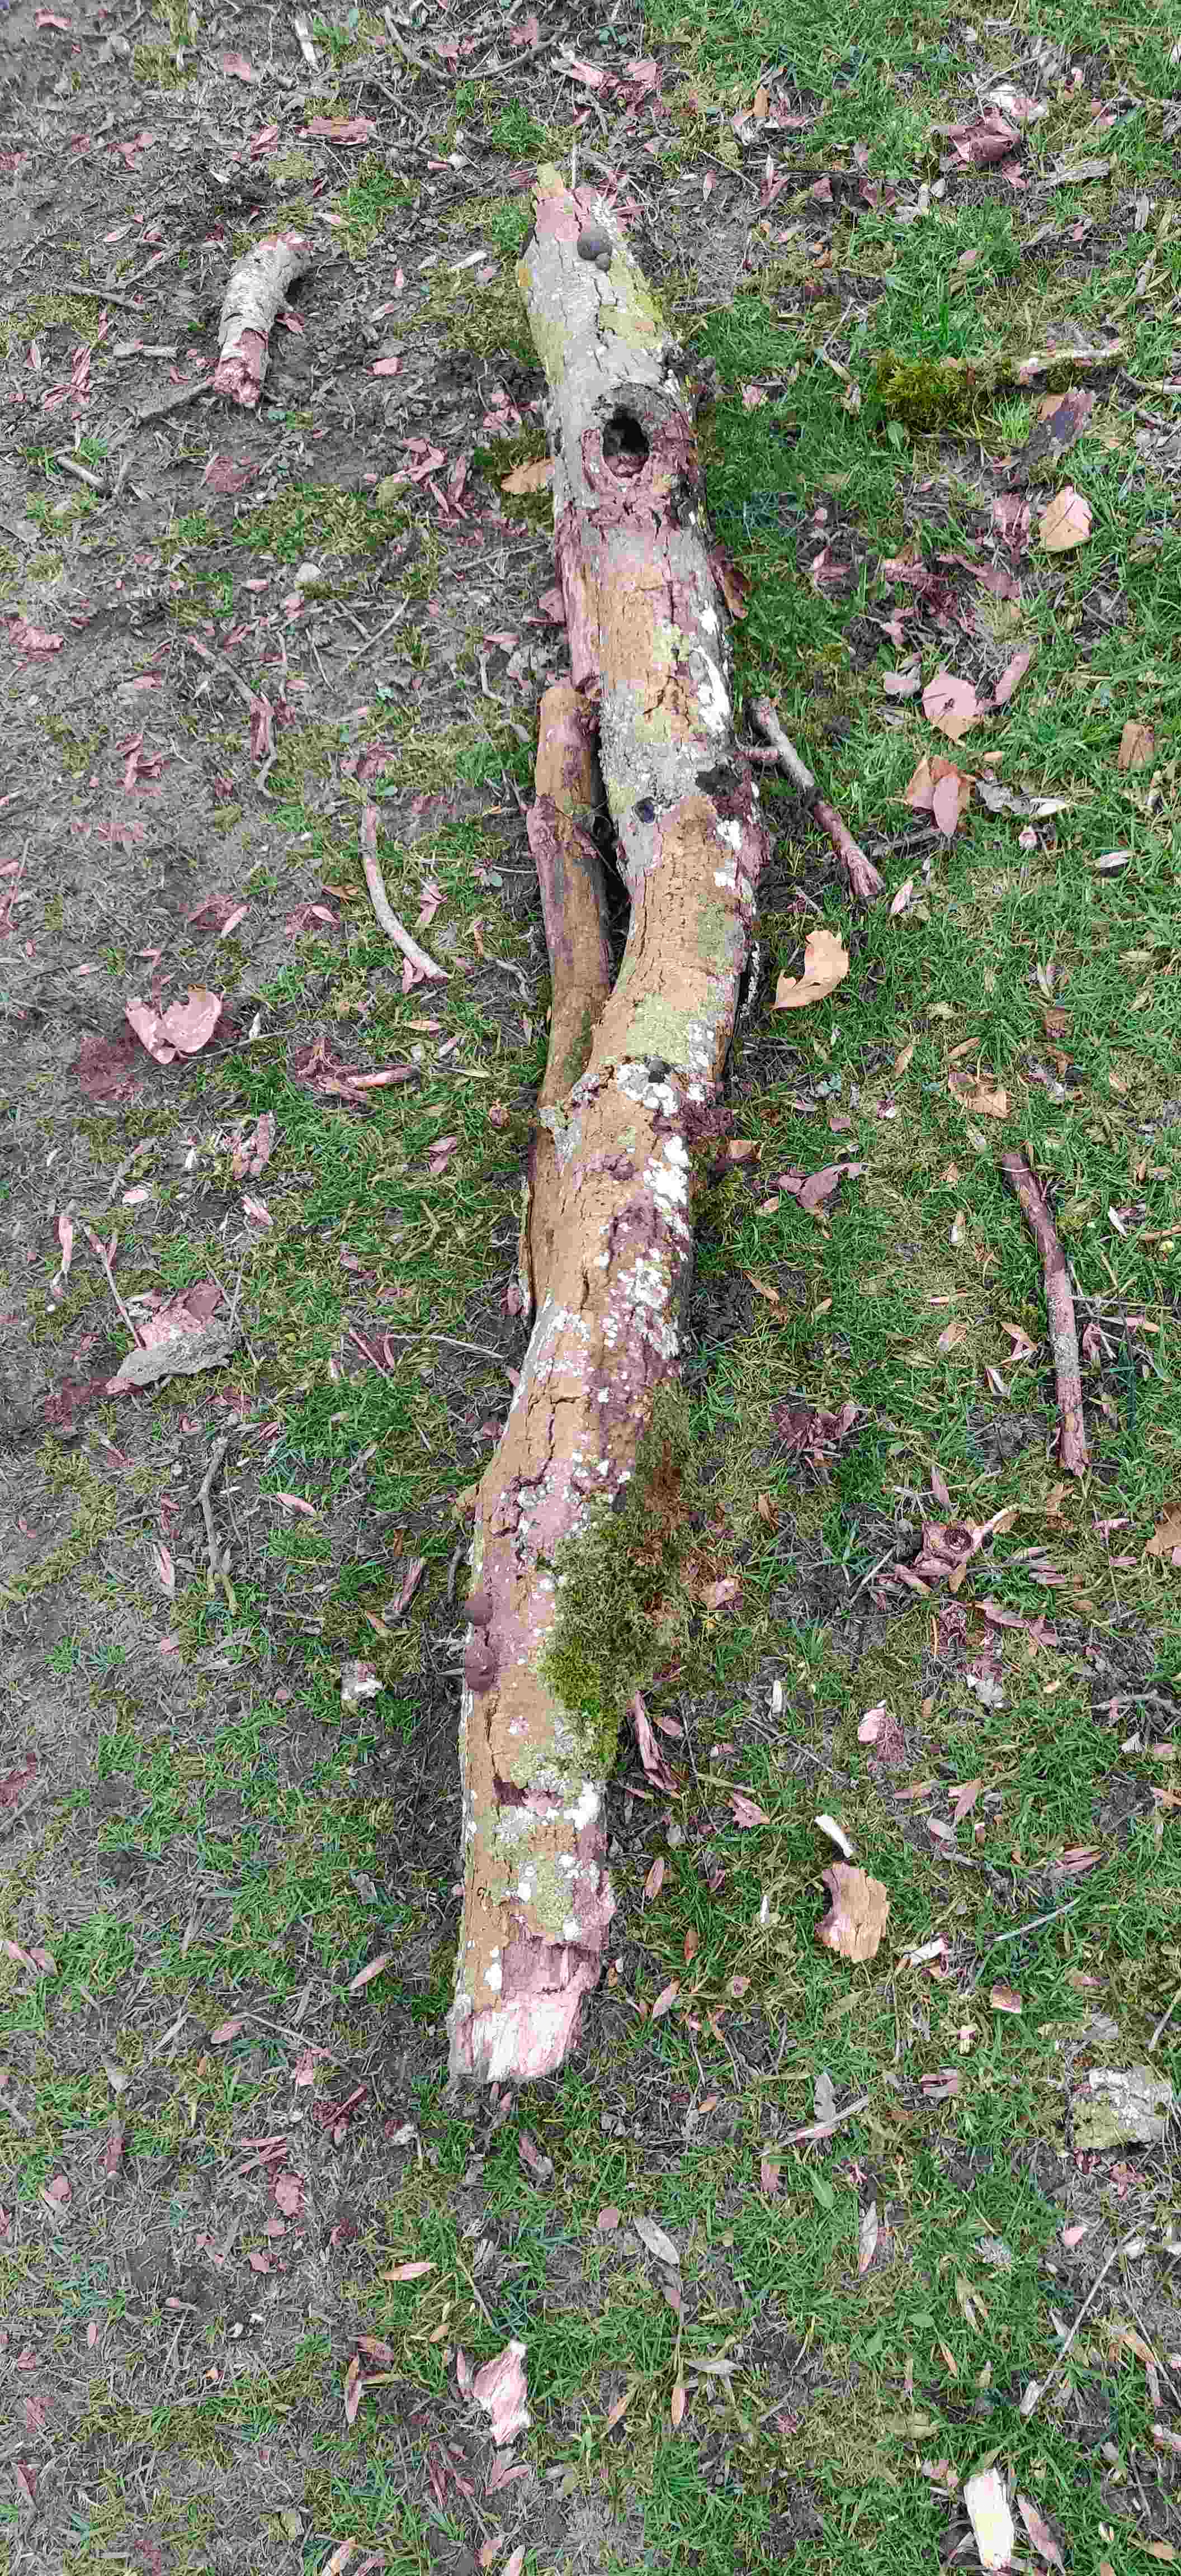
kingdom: Fungi
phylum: Ascomycota
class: Sordariomycetes
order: Xylariales
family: Hypoxylaceae
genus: Daldinia
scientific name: Daldinia concentrica
